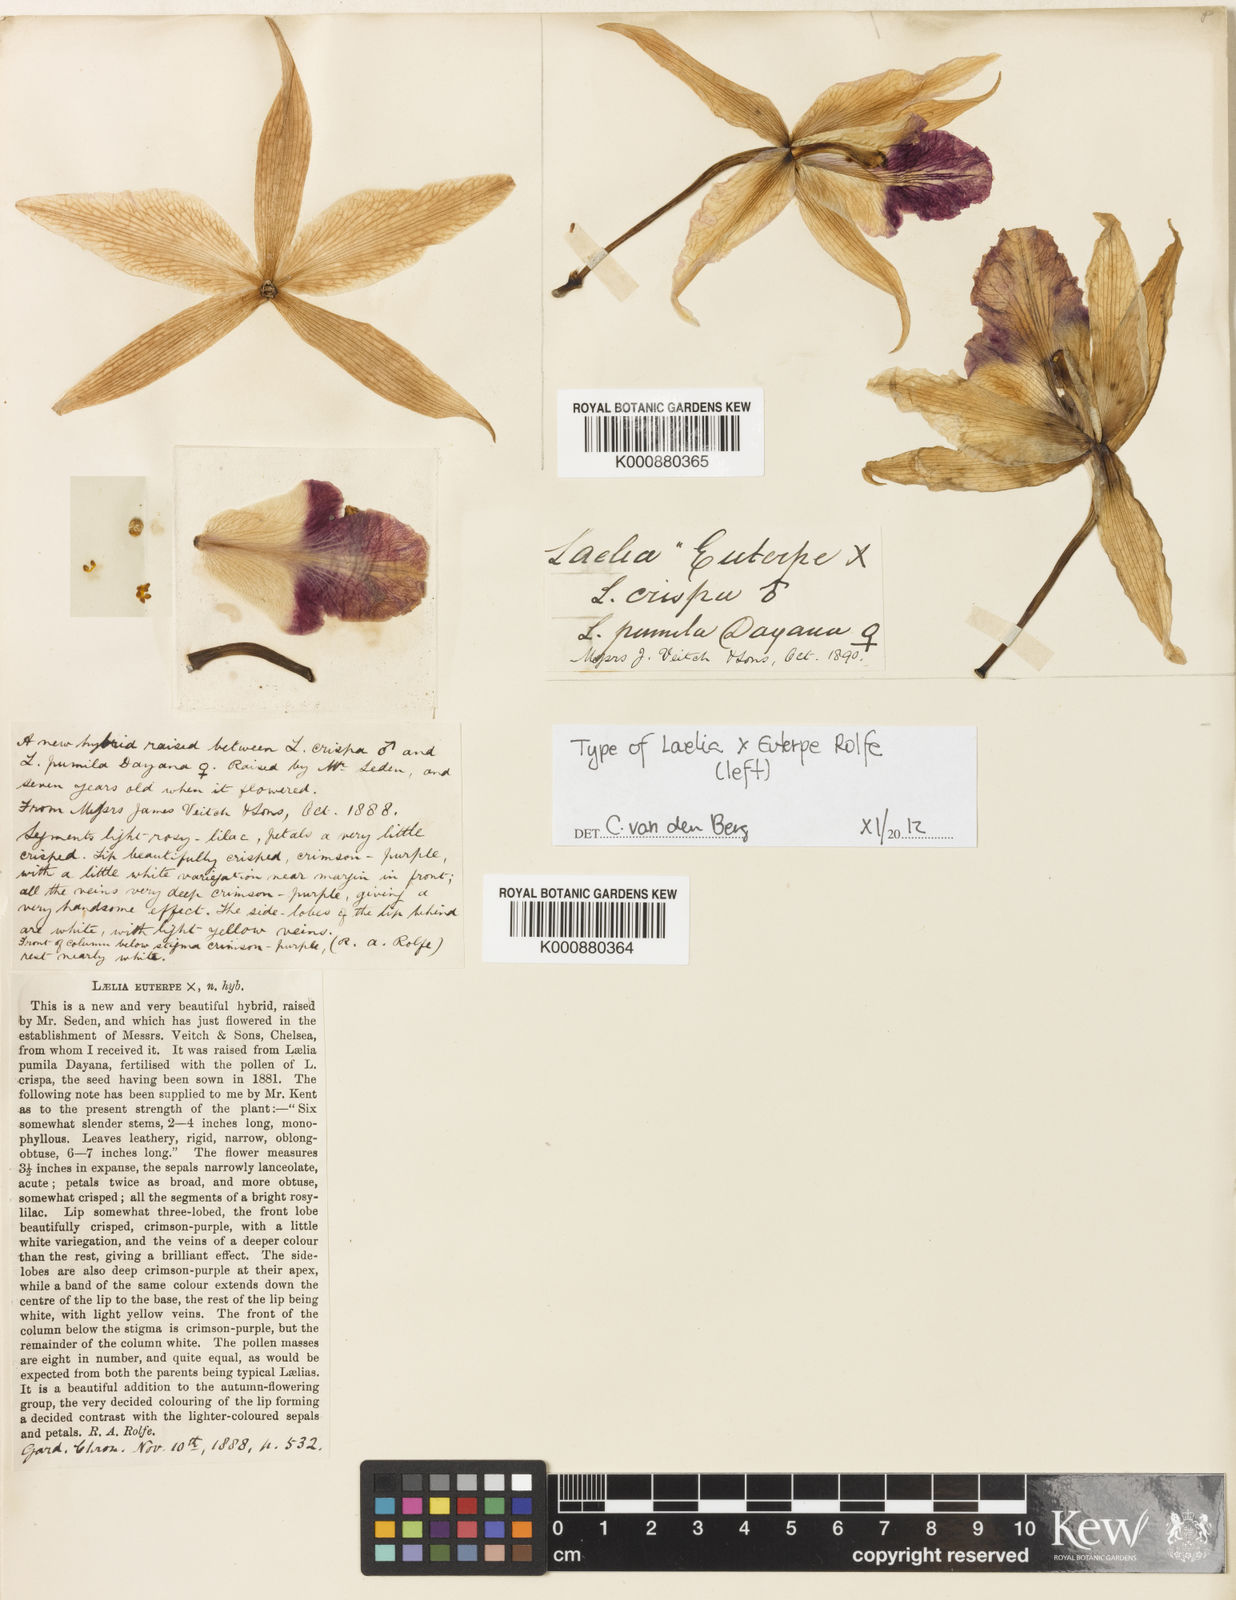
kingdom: Plantae
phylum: Tracheophyta
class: Liliopsida
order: Asparagales
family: Orchidaceae
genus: Laelia
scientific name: Laelia euterpe
